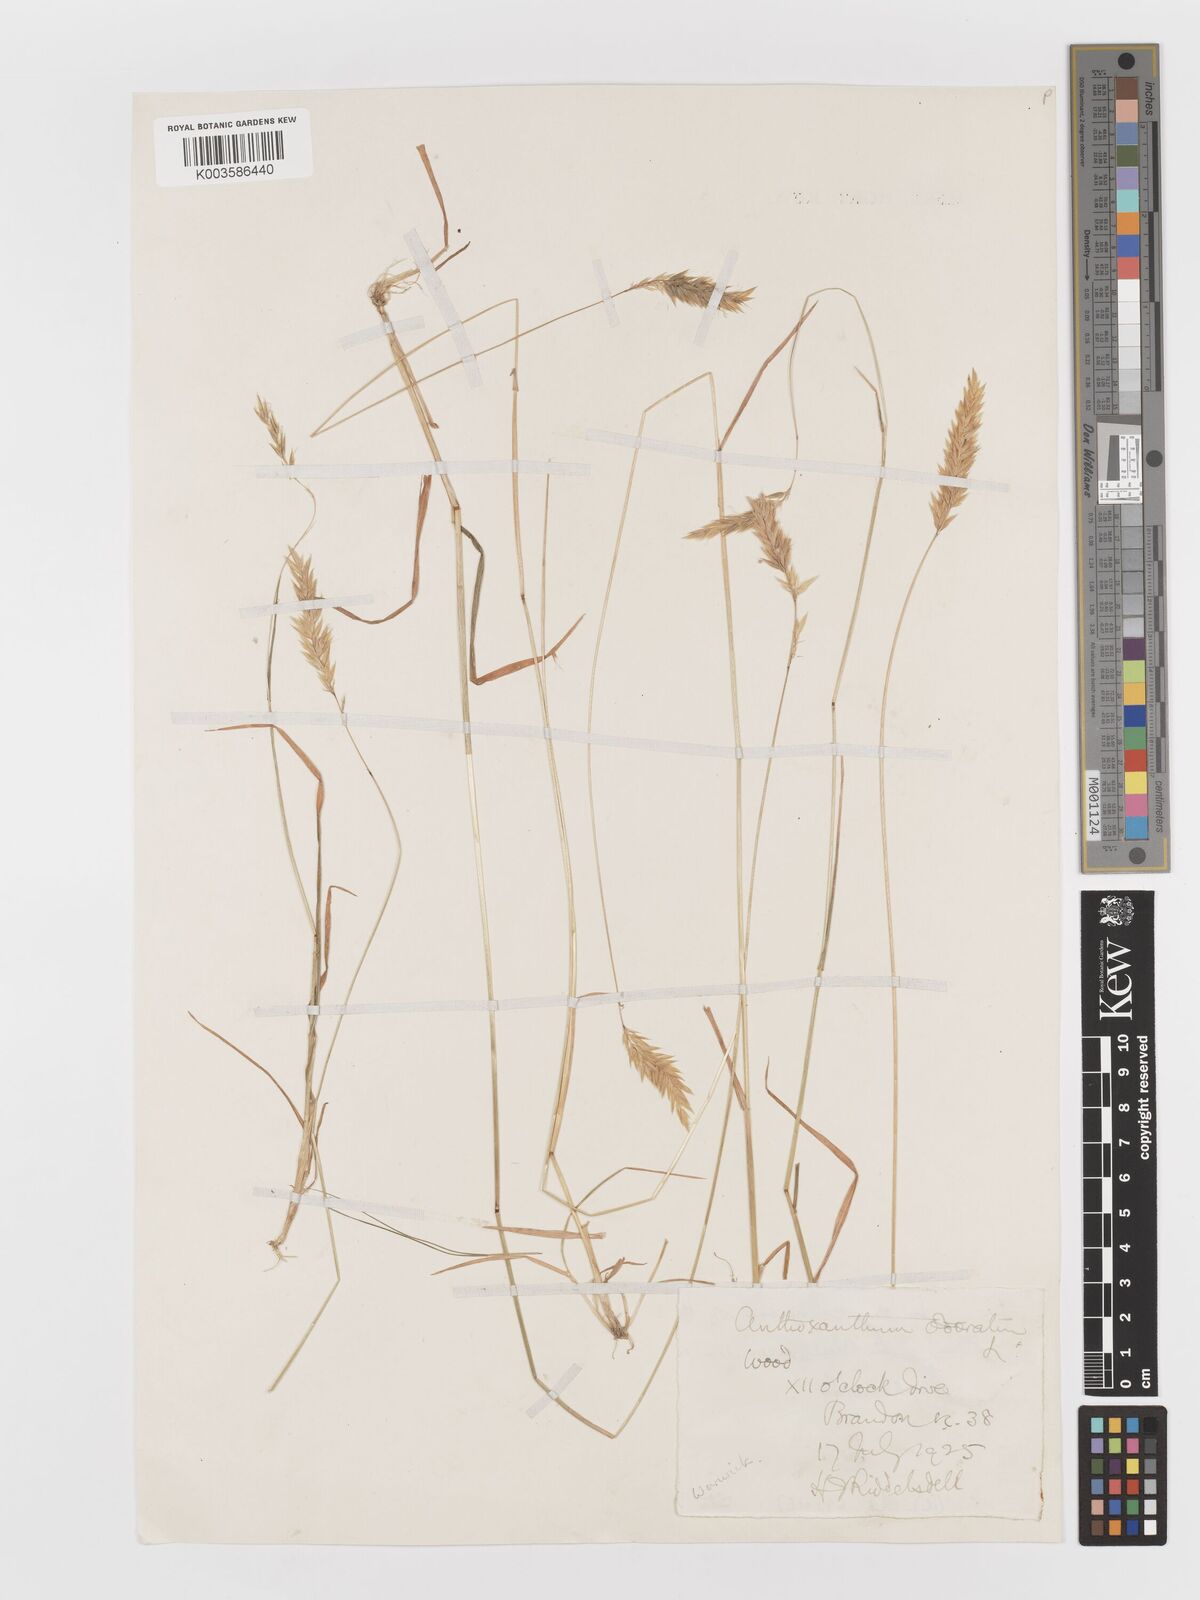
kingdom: Plantae
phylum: Tracheophyta
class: Liliopsida
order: Poales
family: Poaceae
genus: Anthoxanthum
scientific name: Anthoxanthum odoratum
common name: Sweet vernalgrass
